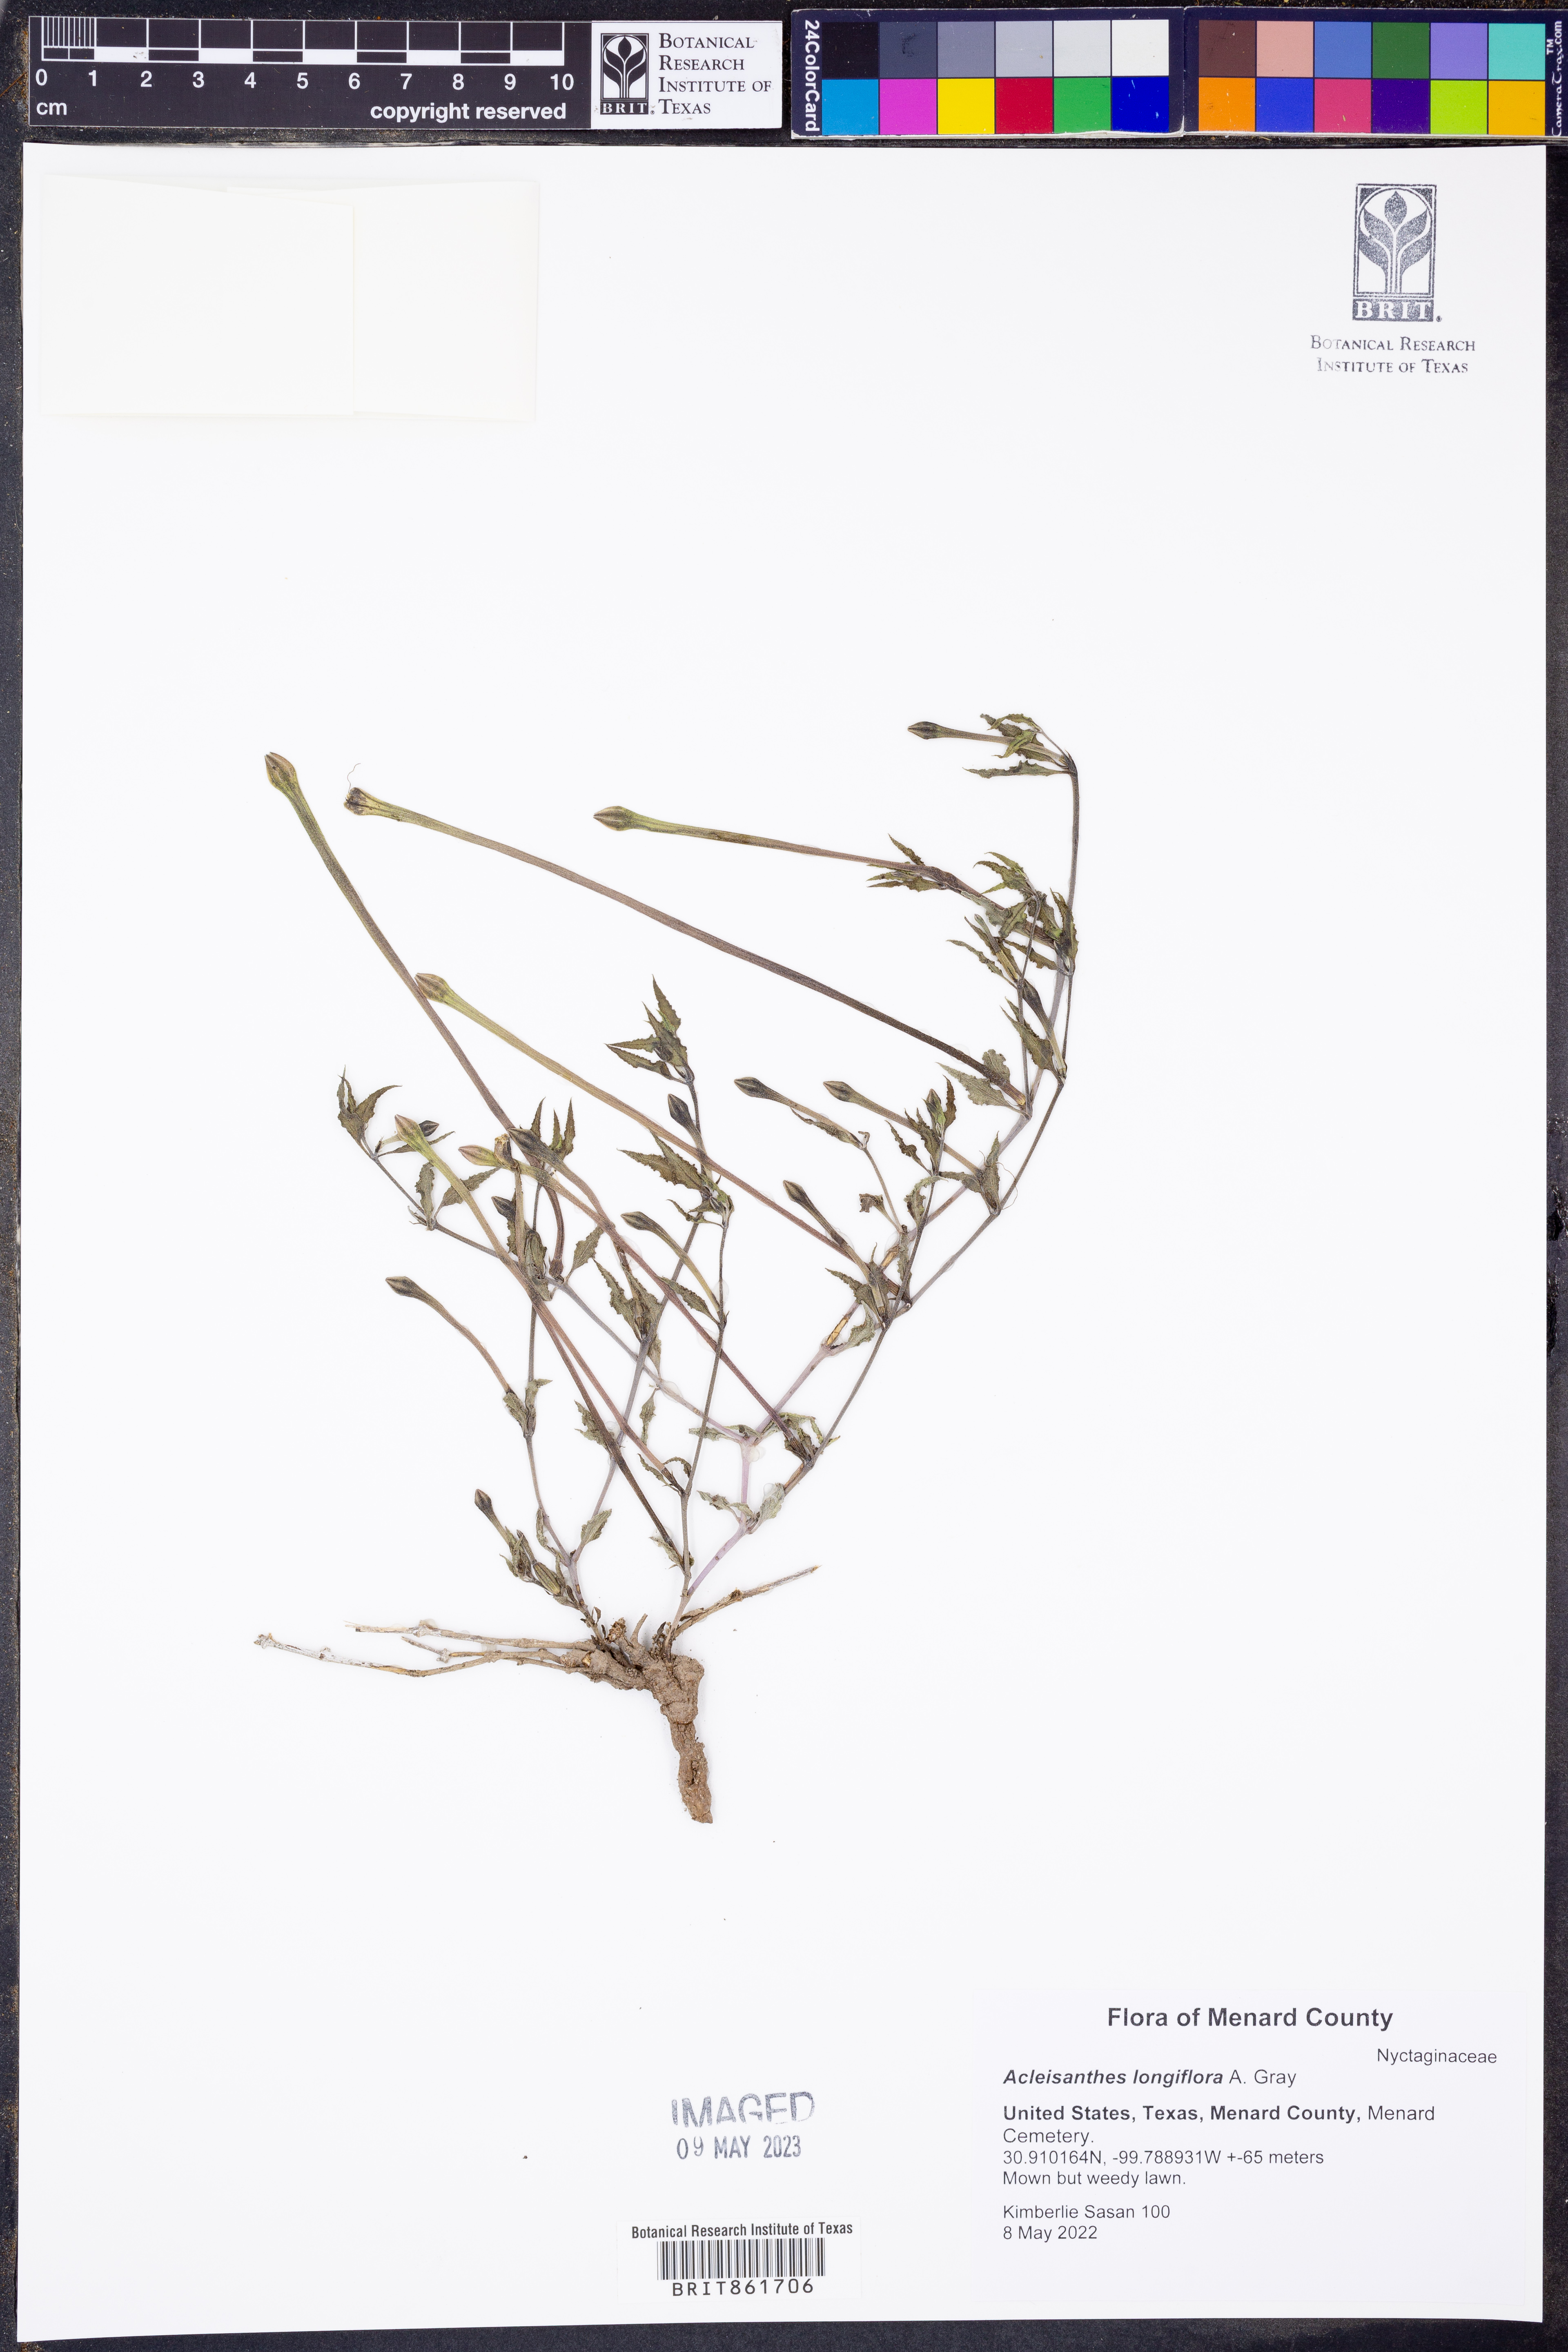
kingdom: Plantae
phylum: Tracheophyta
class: Magnoliopsida
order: Caryophyllales
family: Nyctaginaceae
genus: Acleisanthes
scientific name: Acleisanthes longiflora
